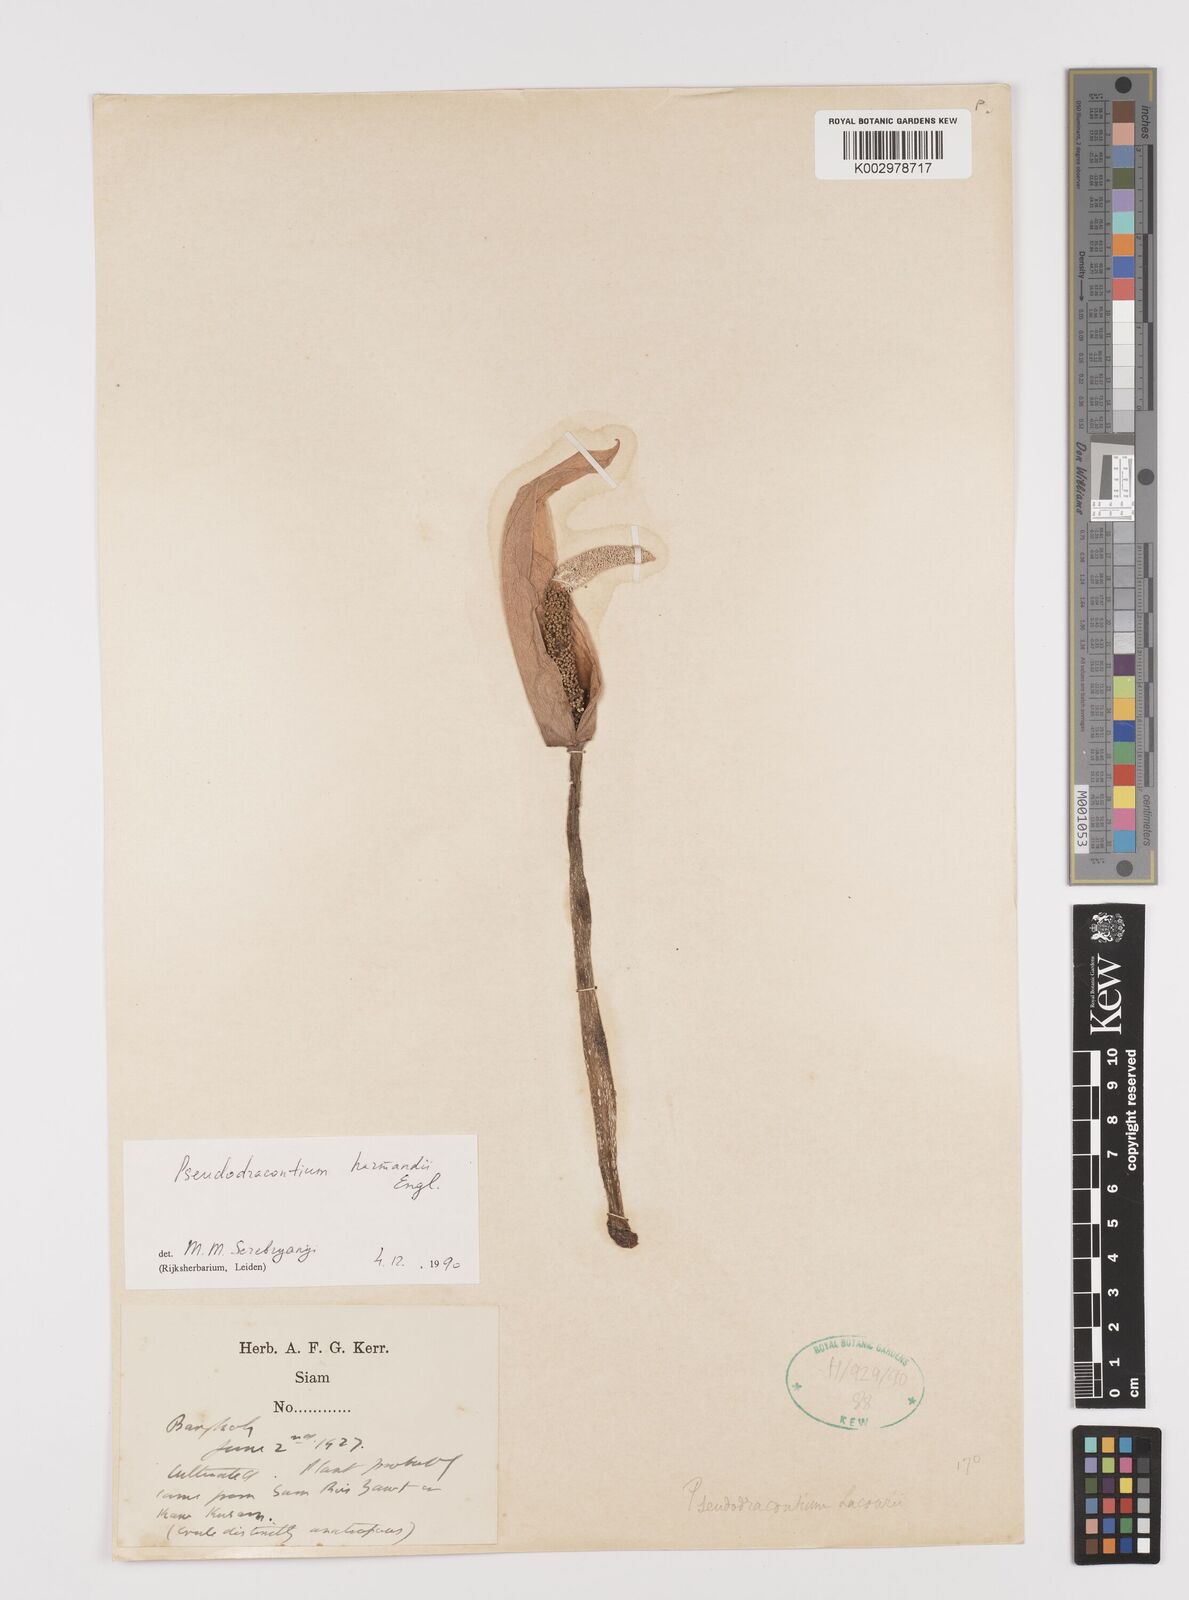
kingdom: Plantae
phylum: Tracheophyta
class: Liliopsida
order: Alismatales
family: Araceae
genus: Amorphophallus
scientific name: Amorphophallus harmandii
